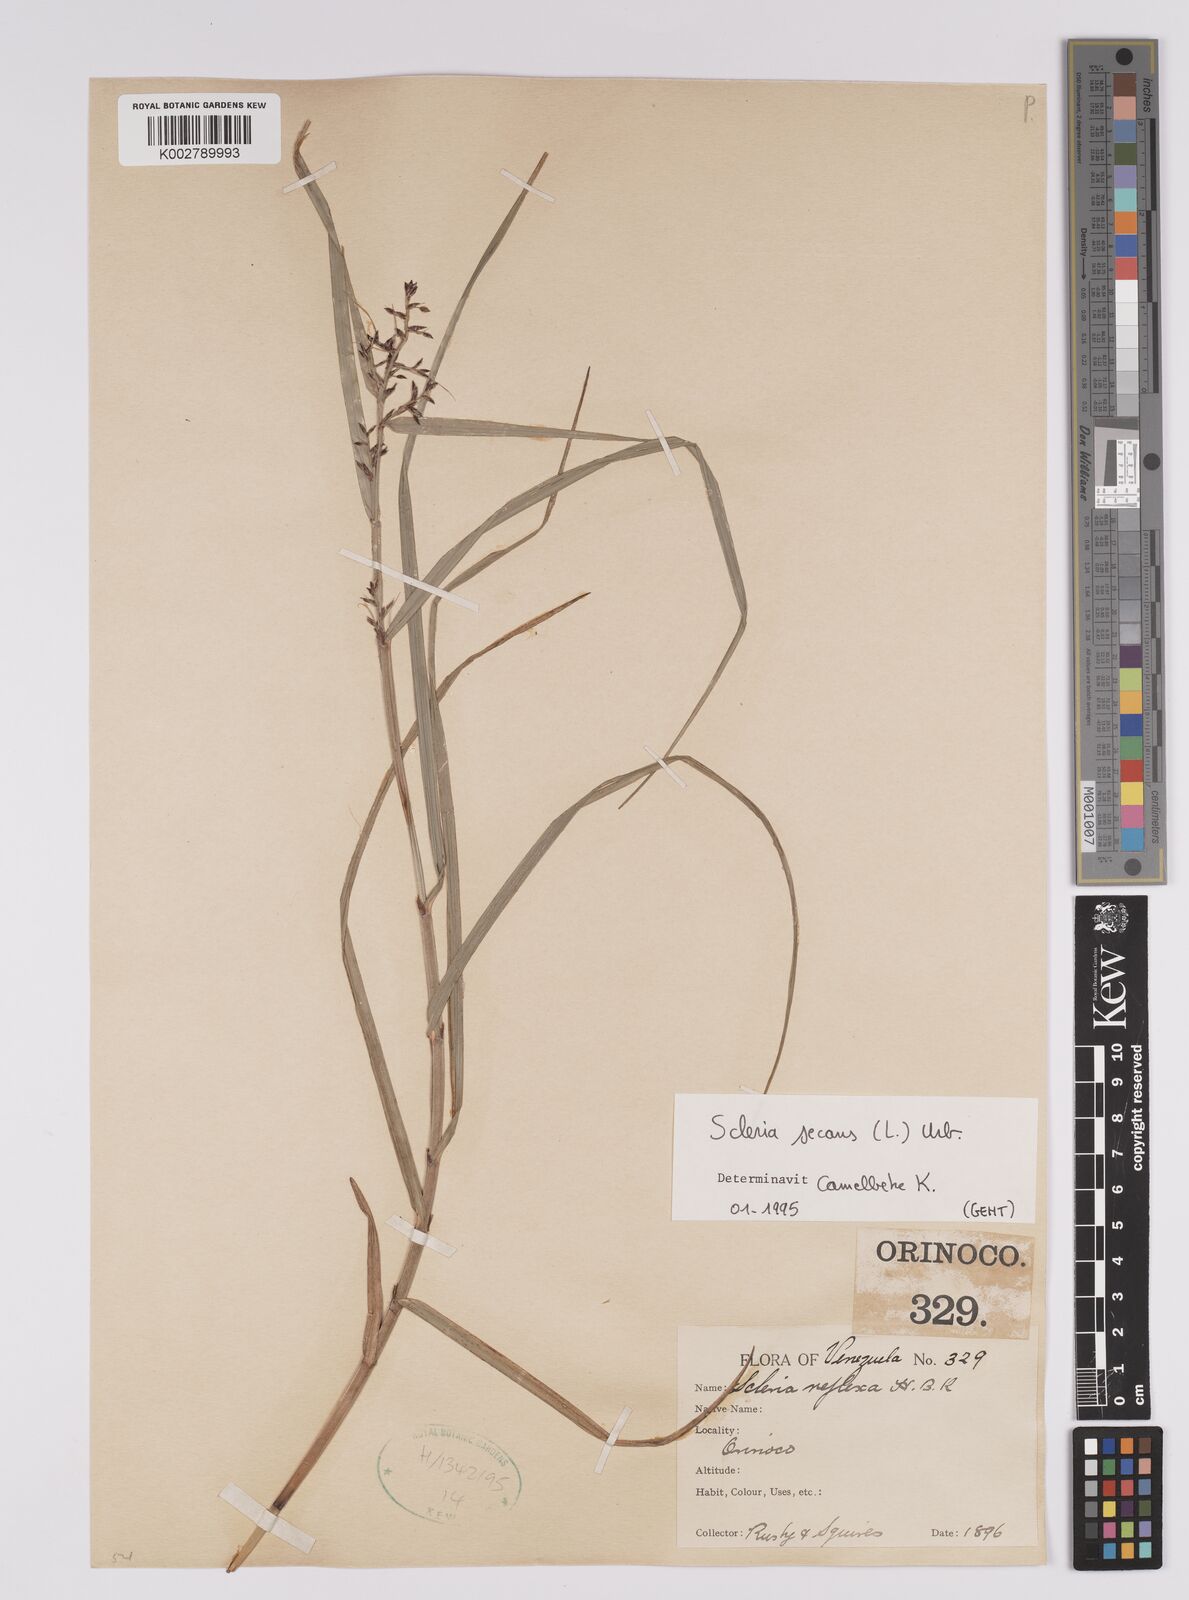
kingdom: Plantae
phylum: Tracheophyta
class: Liliopsida
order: Poales
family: Cyperaceae
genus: Scleria
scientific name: Scleria secans
